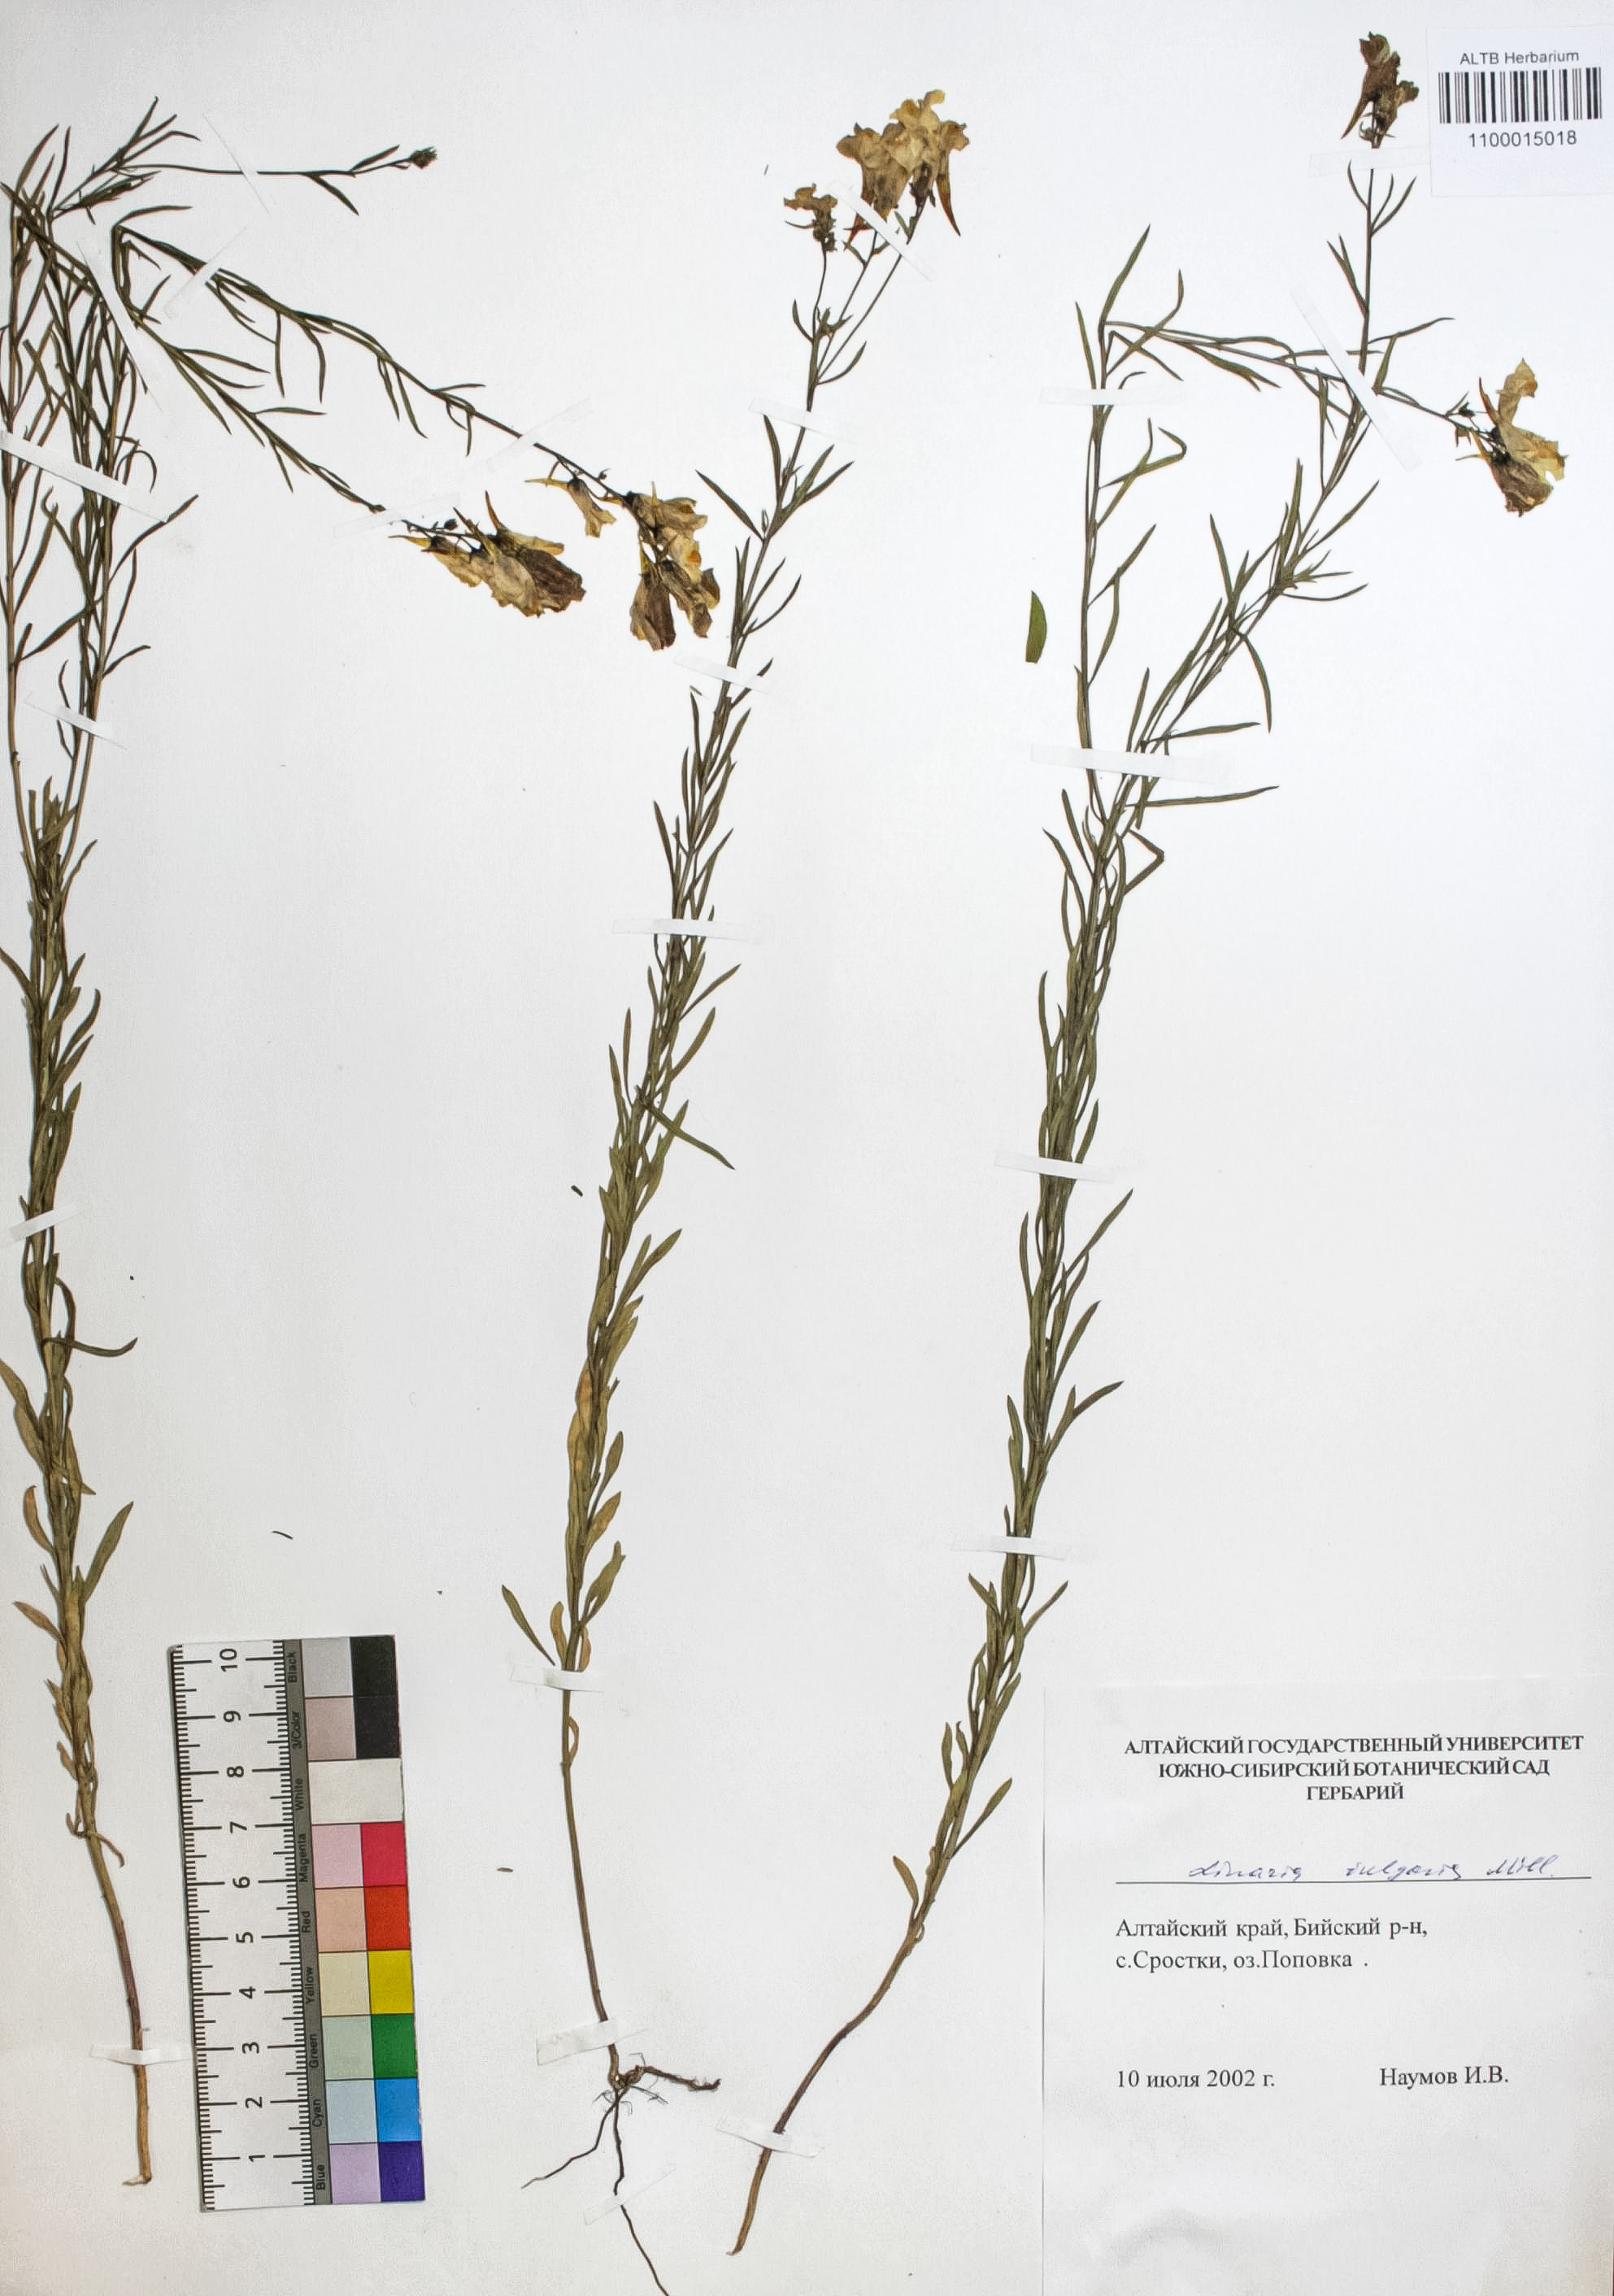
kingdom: Plantae
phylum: Tracheophyta
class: Magnoliopsida
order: Lamiales
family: Plantaginaceae
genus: Linaria
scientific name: Linaria vulgaris
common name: Butter and eggs
